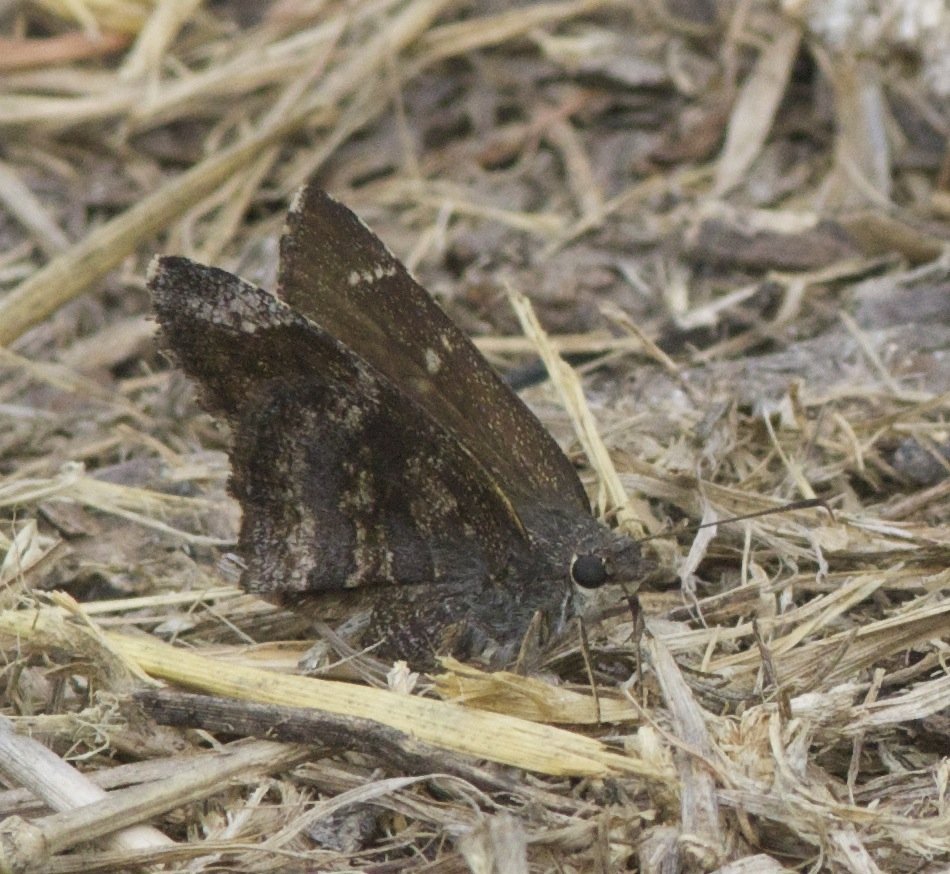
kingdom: Animalia
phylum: Arthropoda
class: Insecta
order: Lepidoptera
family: Hesperiidae
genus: Caicella
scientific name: Caicella calchas
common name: Mimosa Skipper
